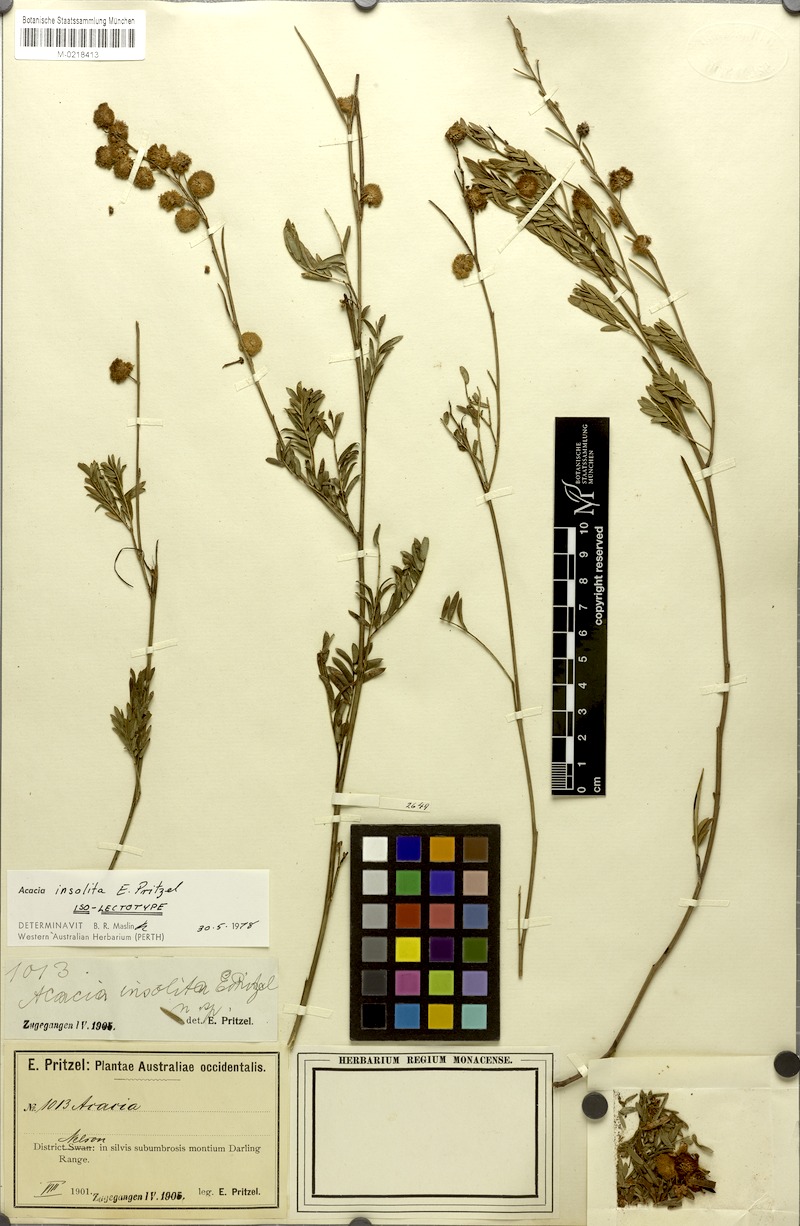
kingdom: Plantae
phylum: Tracheophyta
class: Magnoliopsida
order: Fabales
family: Fabaceae
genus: Acacia
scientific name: Acacia insolita
